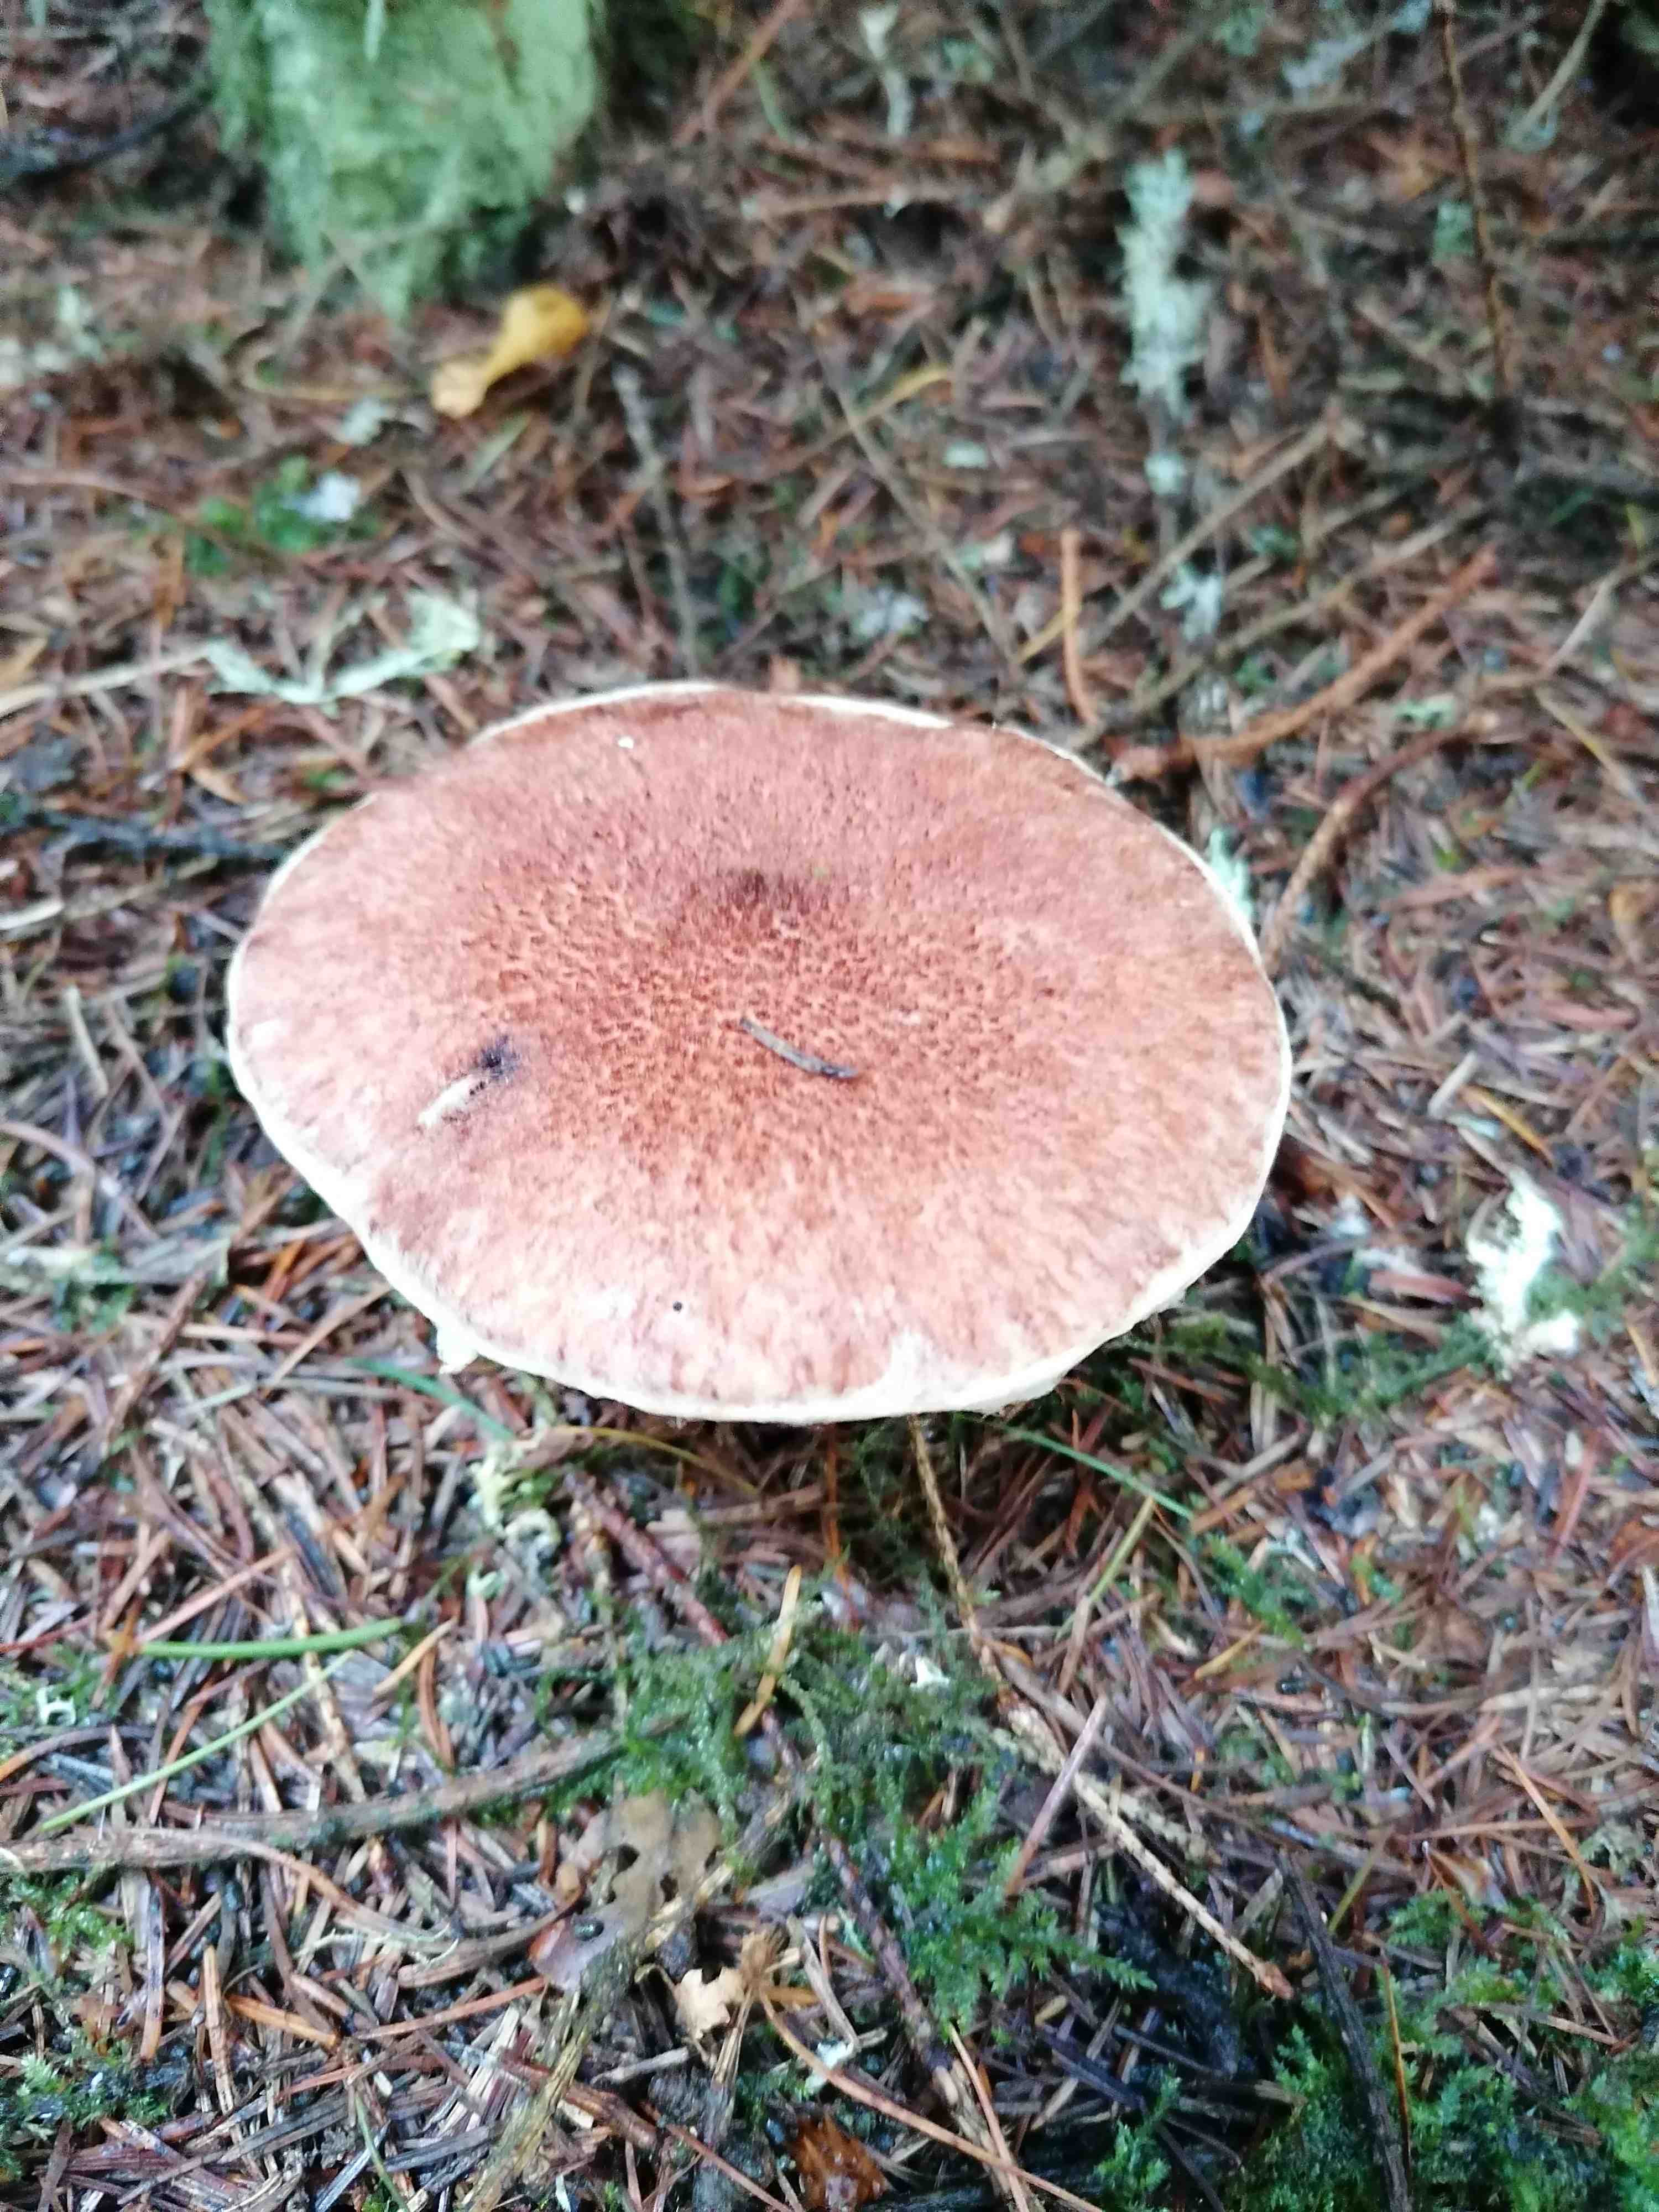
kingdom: Fungi
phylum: Basidiomycota
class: Agaricomycetes
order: Boletales
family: Suillaceae
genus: Suillus
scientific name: Suillus cavipes
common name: hulstokket slimrørhat
